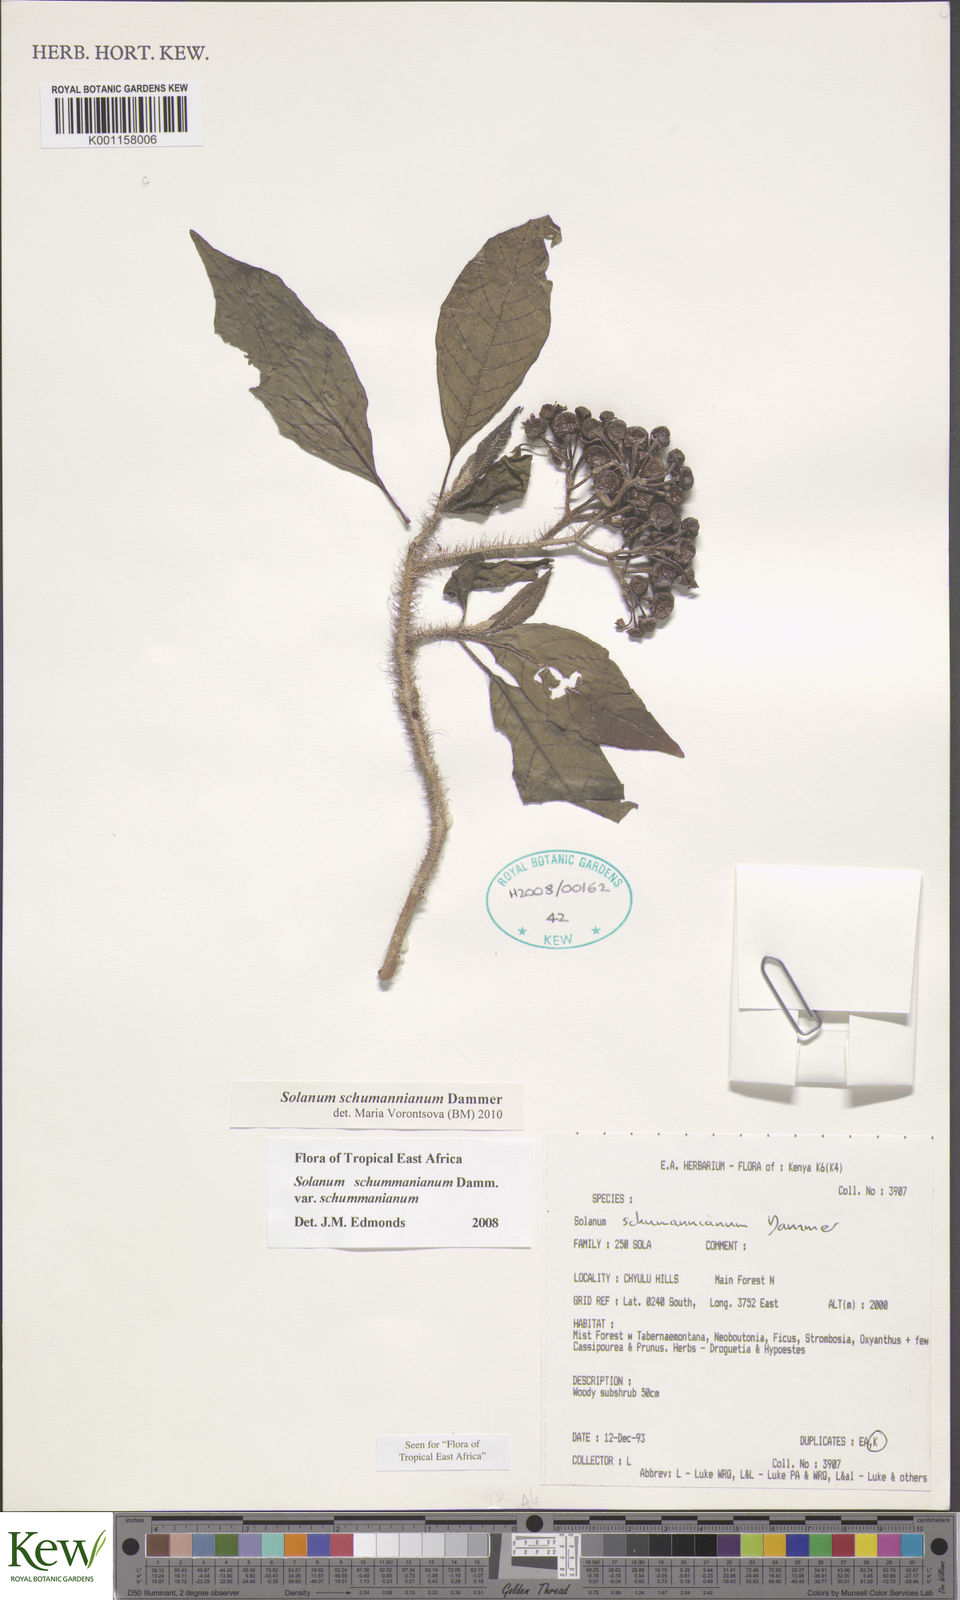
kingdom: Plantae
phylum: Tracheophyta
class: Magnoliopsida
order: Solanales
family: Solanaceae
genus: Solanum
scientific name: Solanum schumannianum
